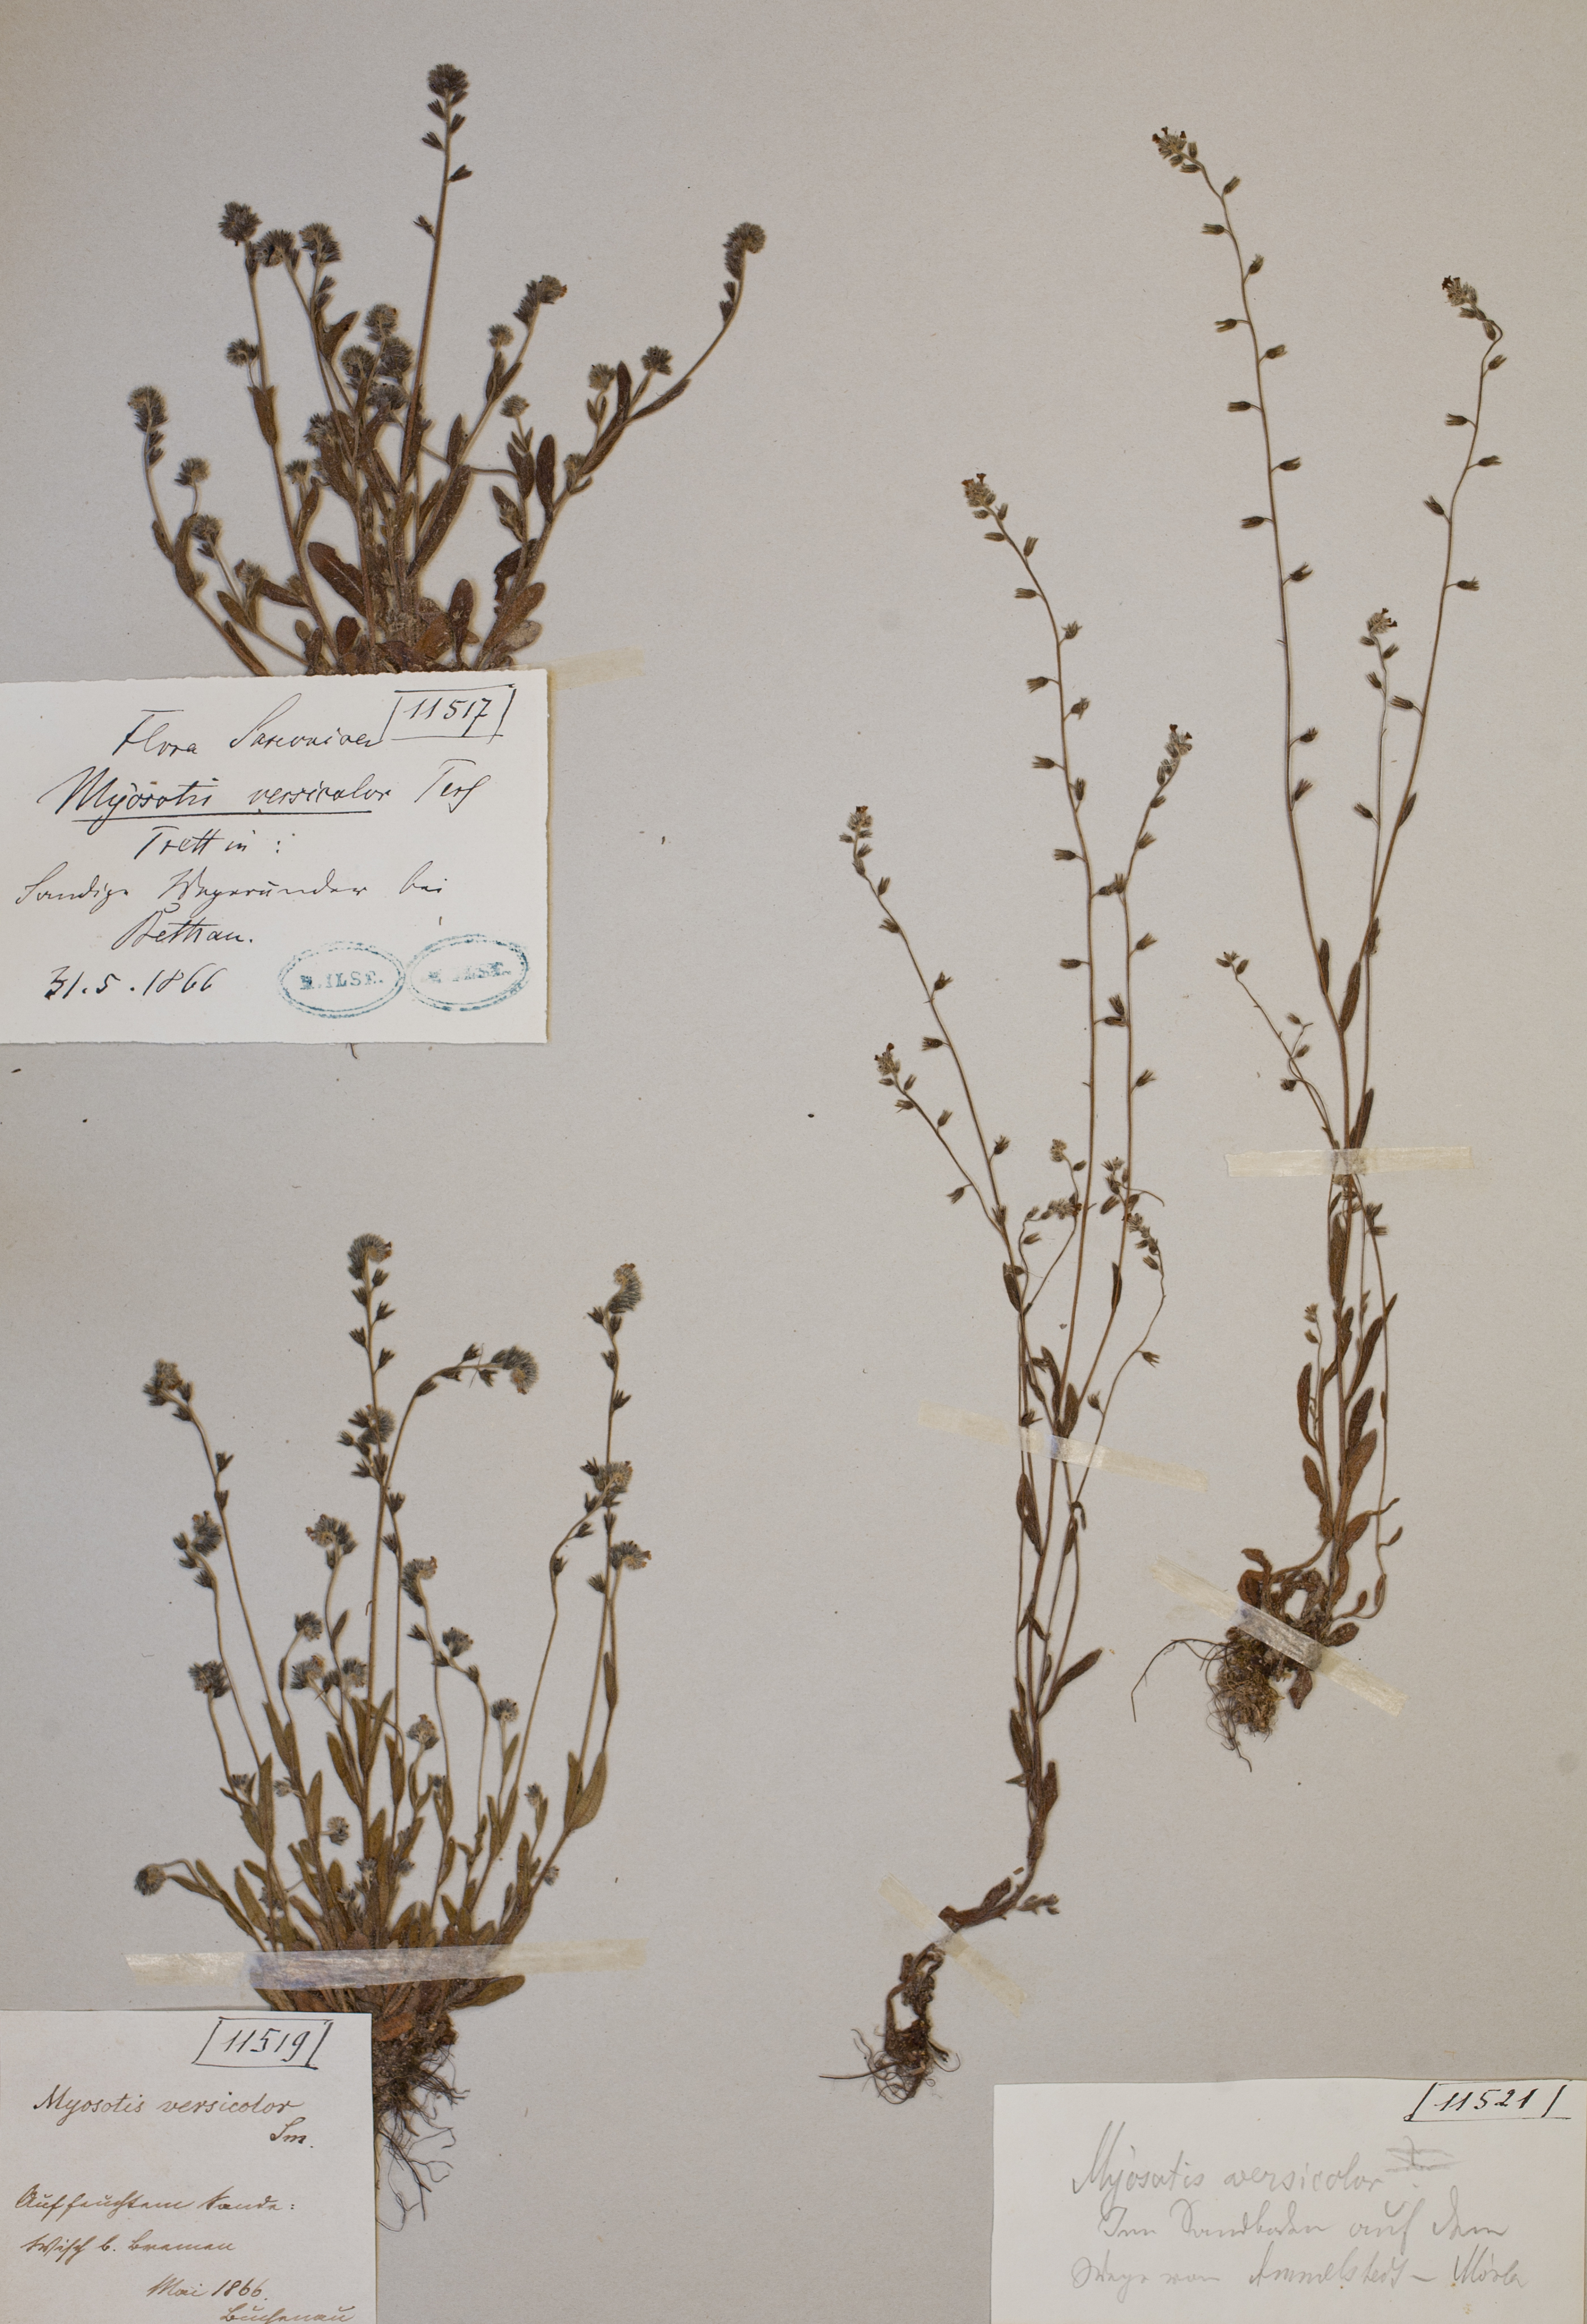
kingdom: Plantae
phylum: Tracheophyta
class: Magnoliopsida
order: Boraginales
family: Boraginaceae
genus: Myosotis
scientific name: Myosotis discolor
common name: Changing forget-me-not
